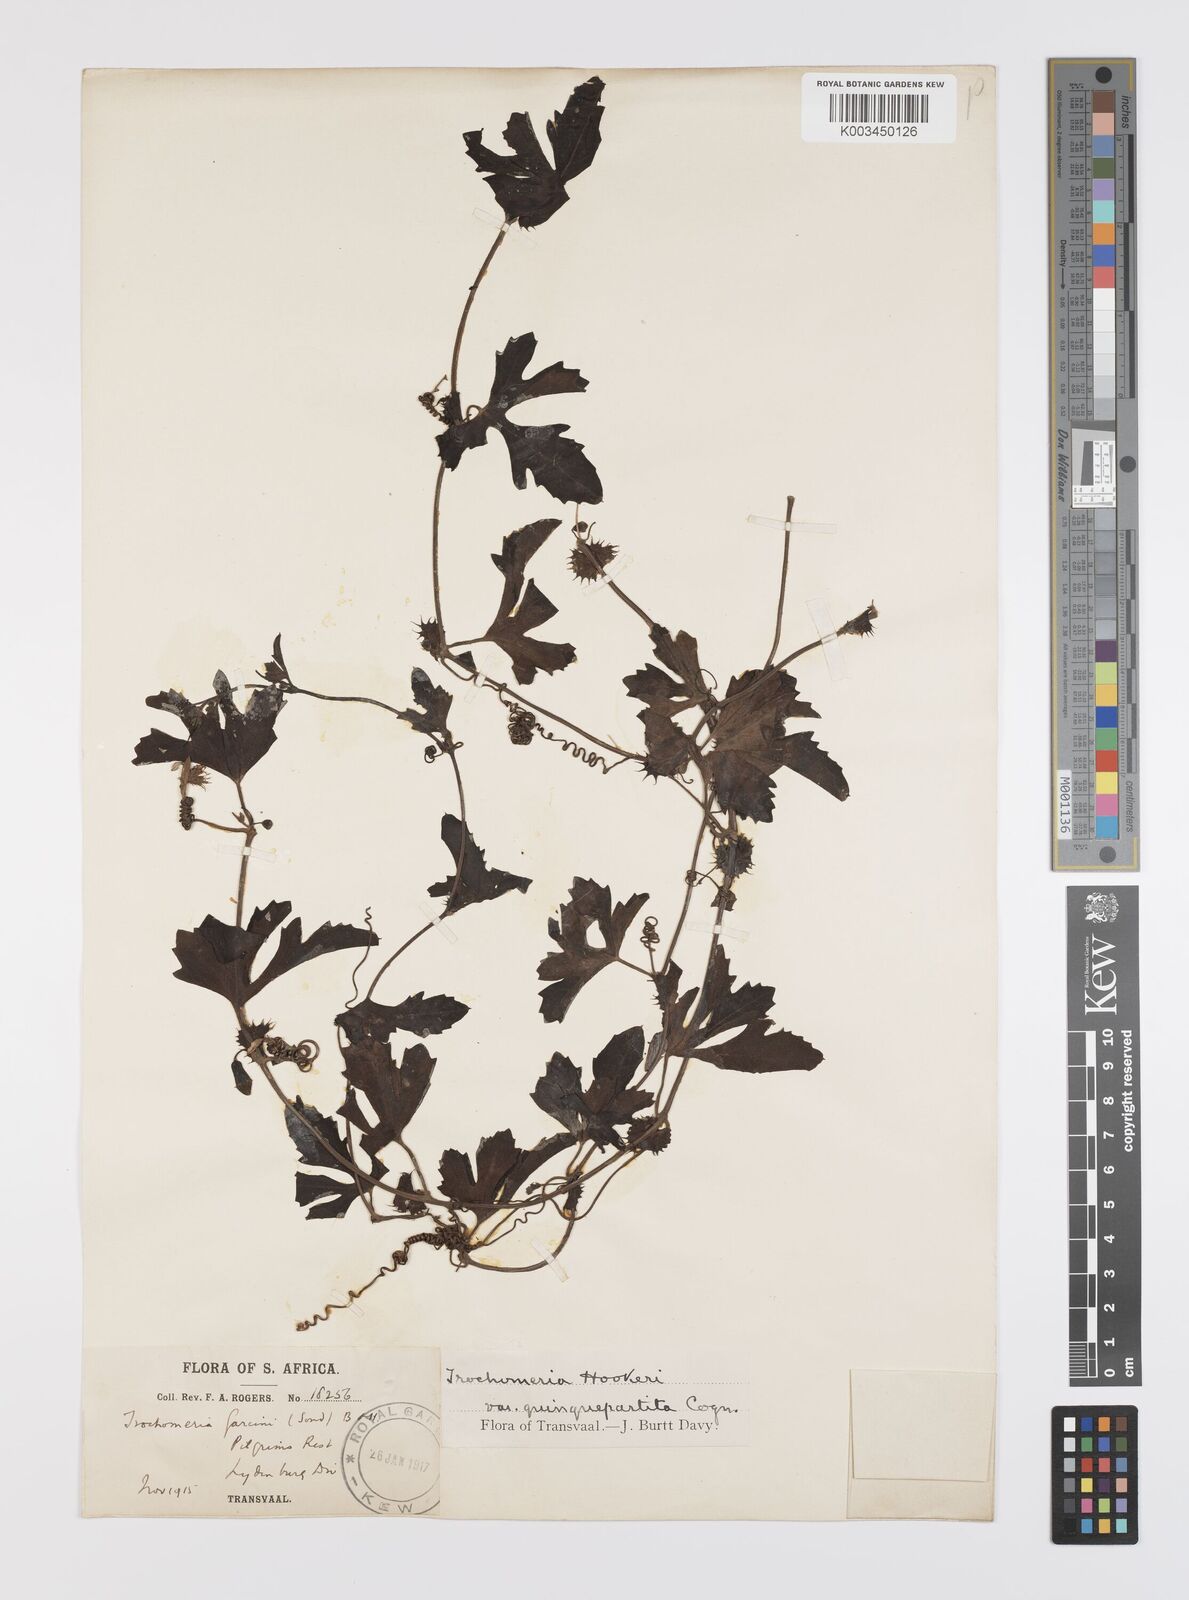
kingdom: Plantae
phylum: Tracheophyta
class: Magnoliopsida
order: Cucurbitales
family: Cucurbitaceae
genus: Trochomeria
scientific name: Trochomeria hookeri
